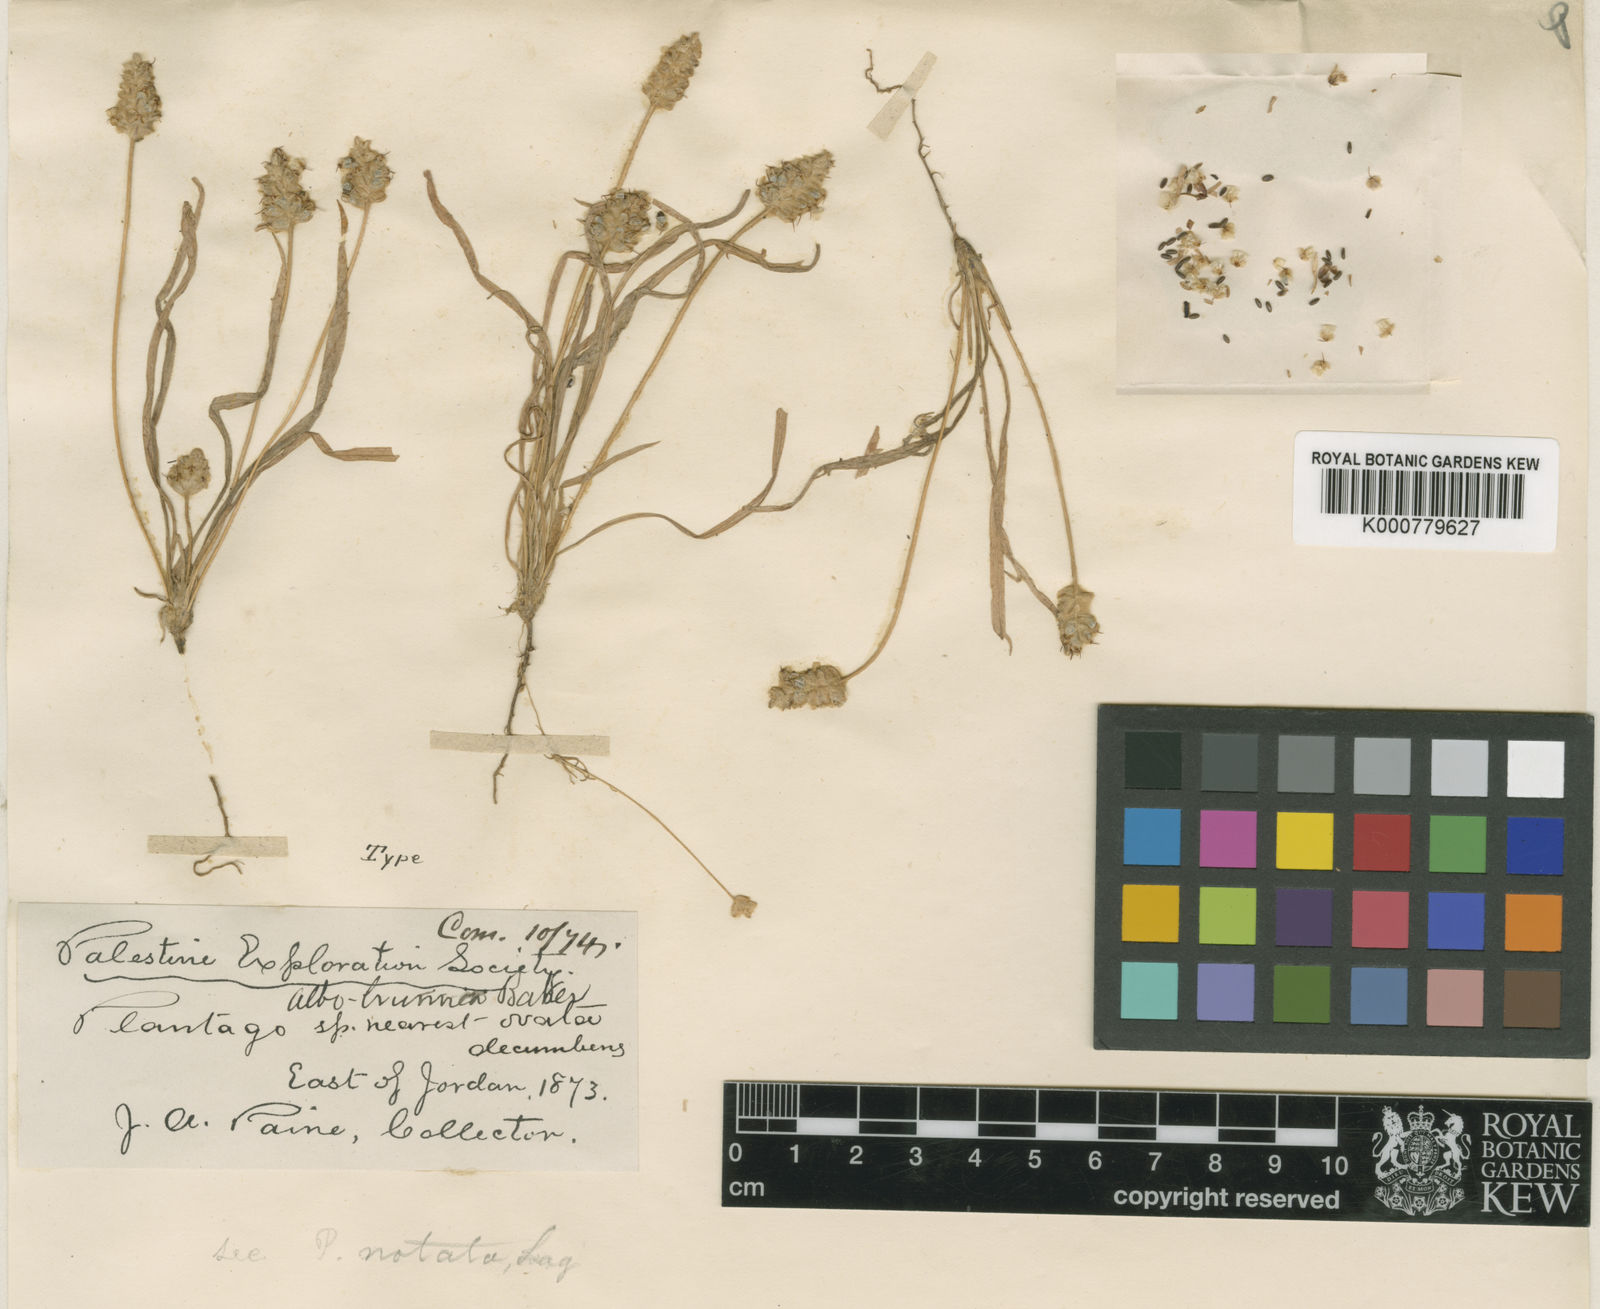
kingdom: Plantae
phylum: Tracheophyta
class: Magnoliopsida
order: Lamiales
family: Plantaginaceae
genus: Plantago
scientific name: Plantago notata
